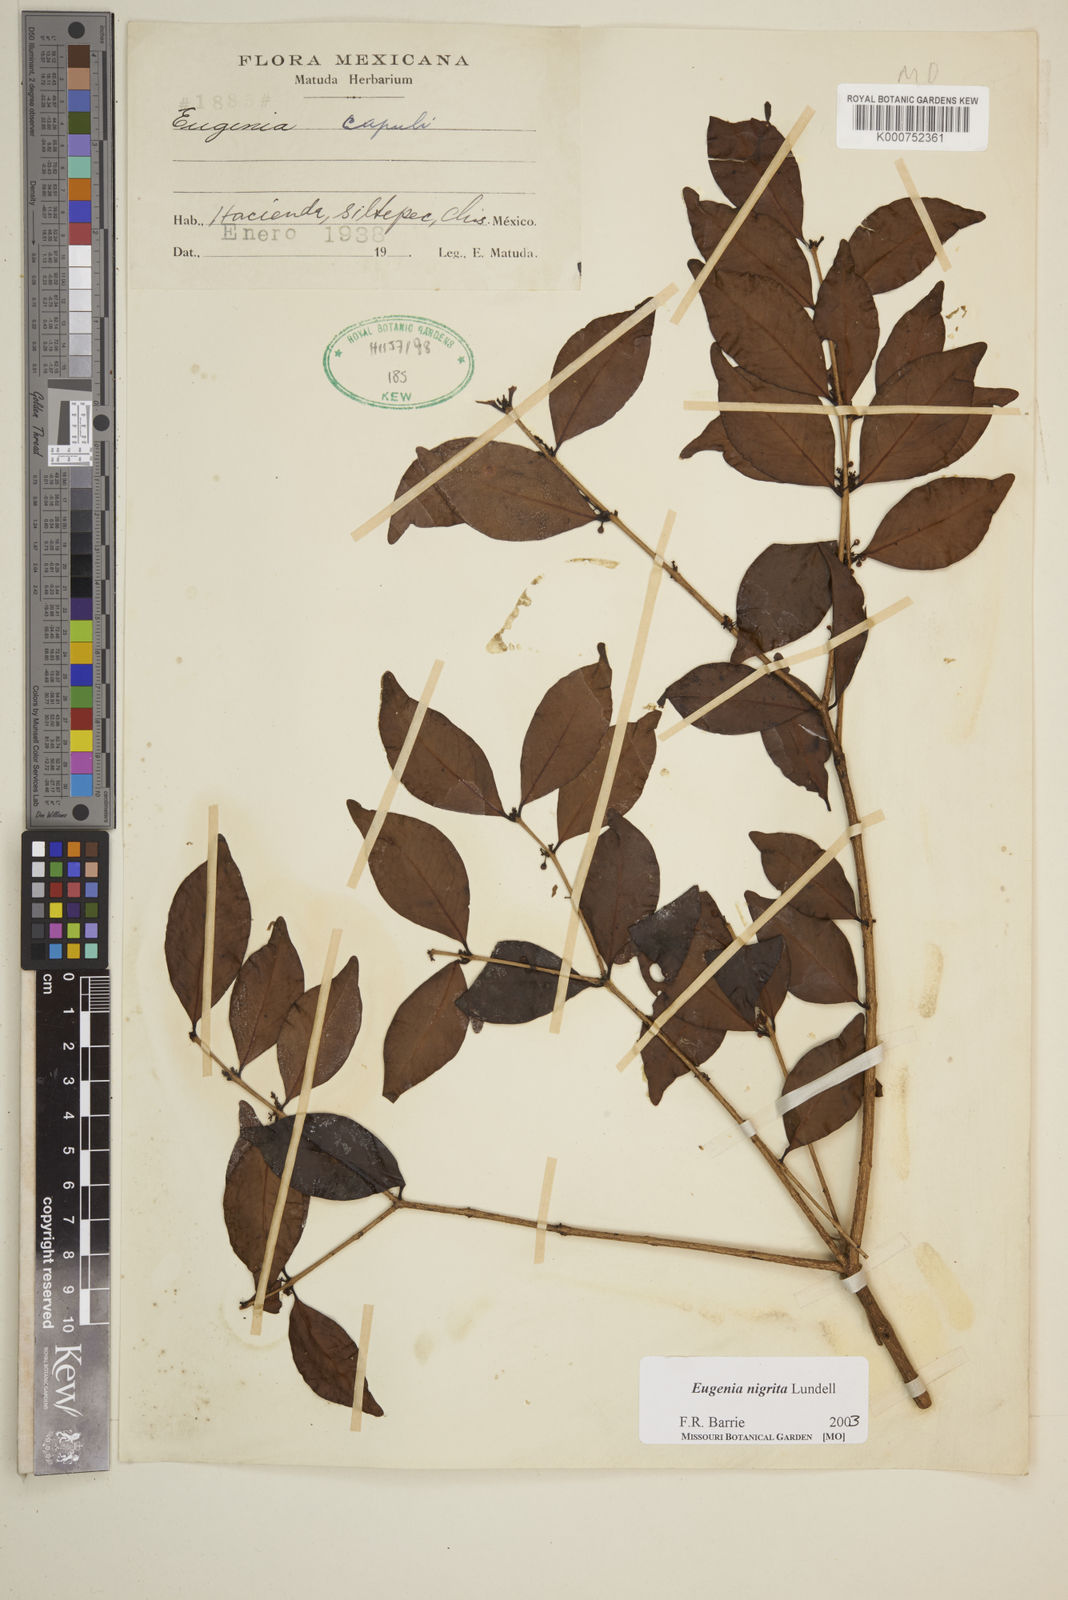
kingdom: Plantae
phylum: Tracheophyta
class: Magnoliopsida
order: Myrtales
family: Myrtaceae
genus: Eugenia
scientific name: Eugenia nigrita
